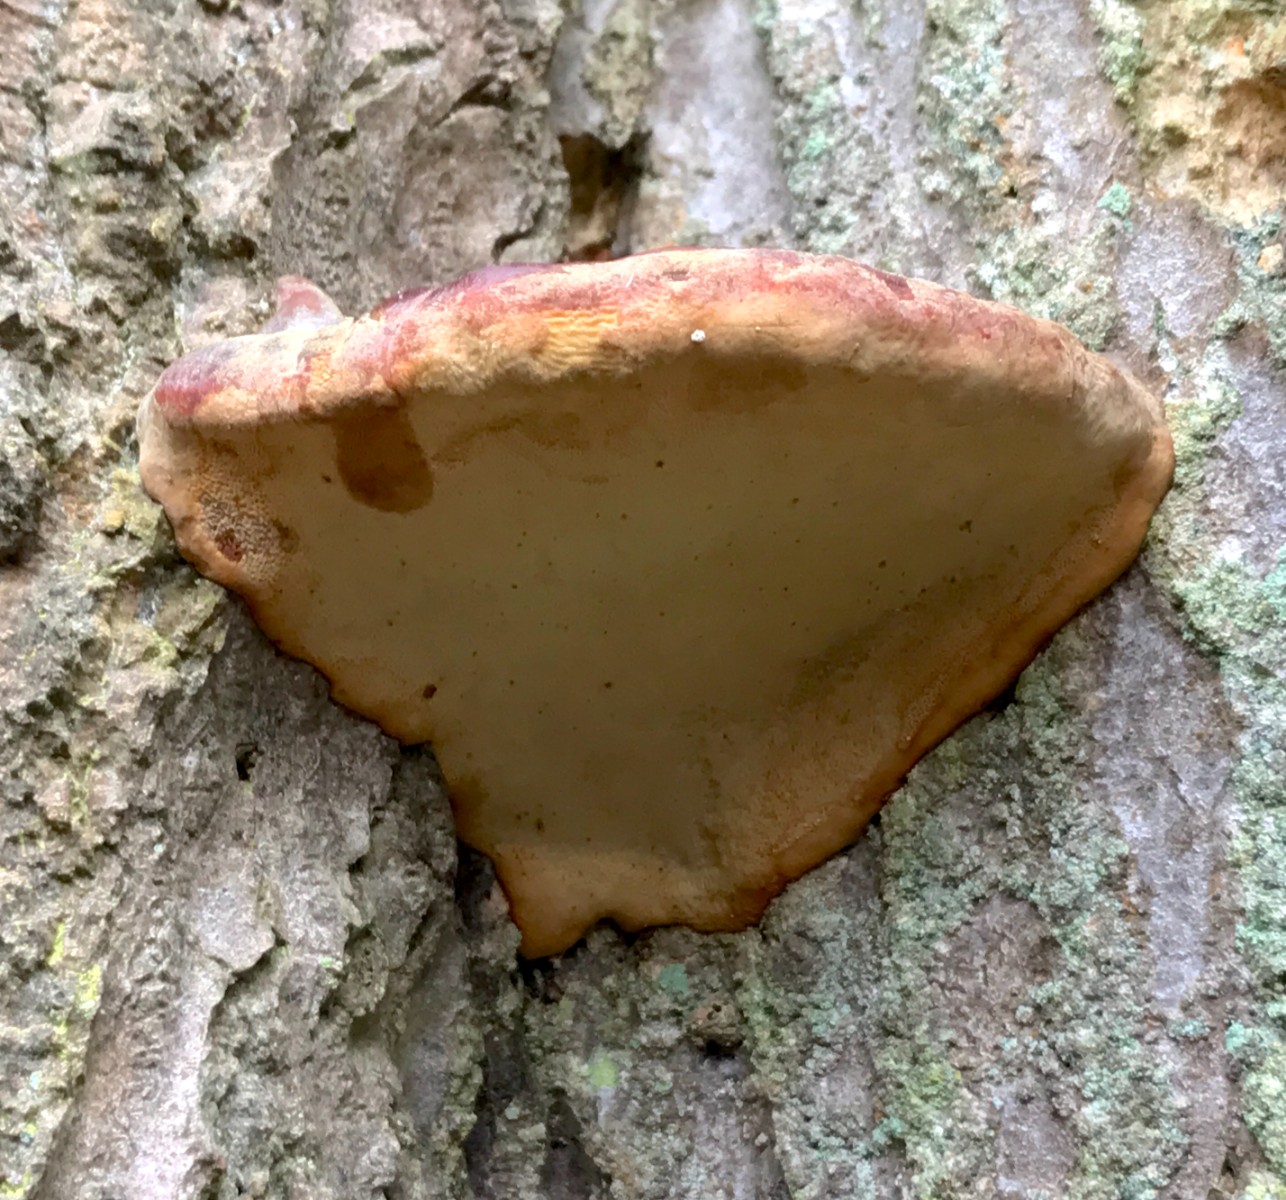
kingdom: Fungi
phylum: Basidiomycota
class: Agaricomycetes
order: Polyporales
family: Polyporaceae
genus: Ganoderma
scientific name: Ganoderma pfeifferi
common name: kobberrød lakporesvamp
